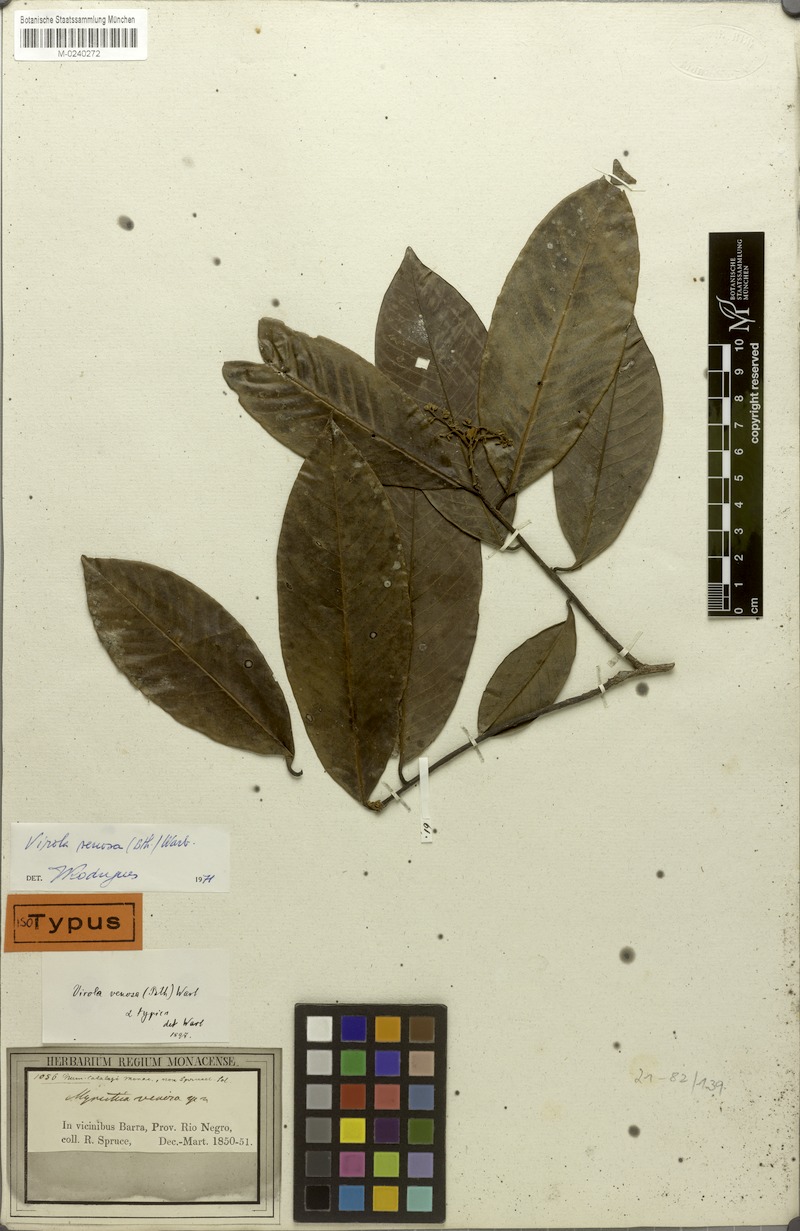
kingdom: Plantae
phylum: Tracheophyta
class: Magnoliopsida
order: Magnoliales
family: Myristicaceae
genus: Virola
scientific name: Virola venosa
